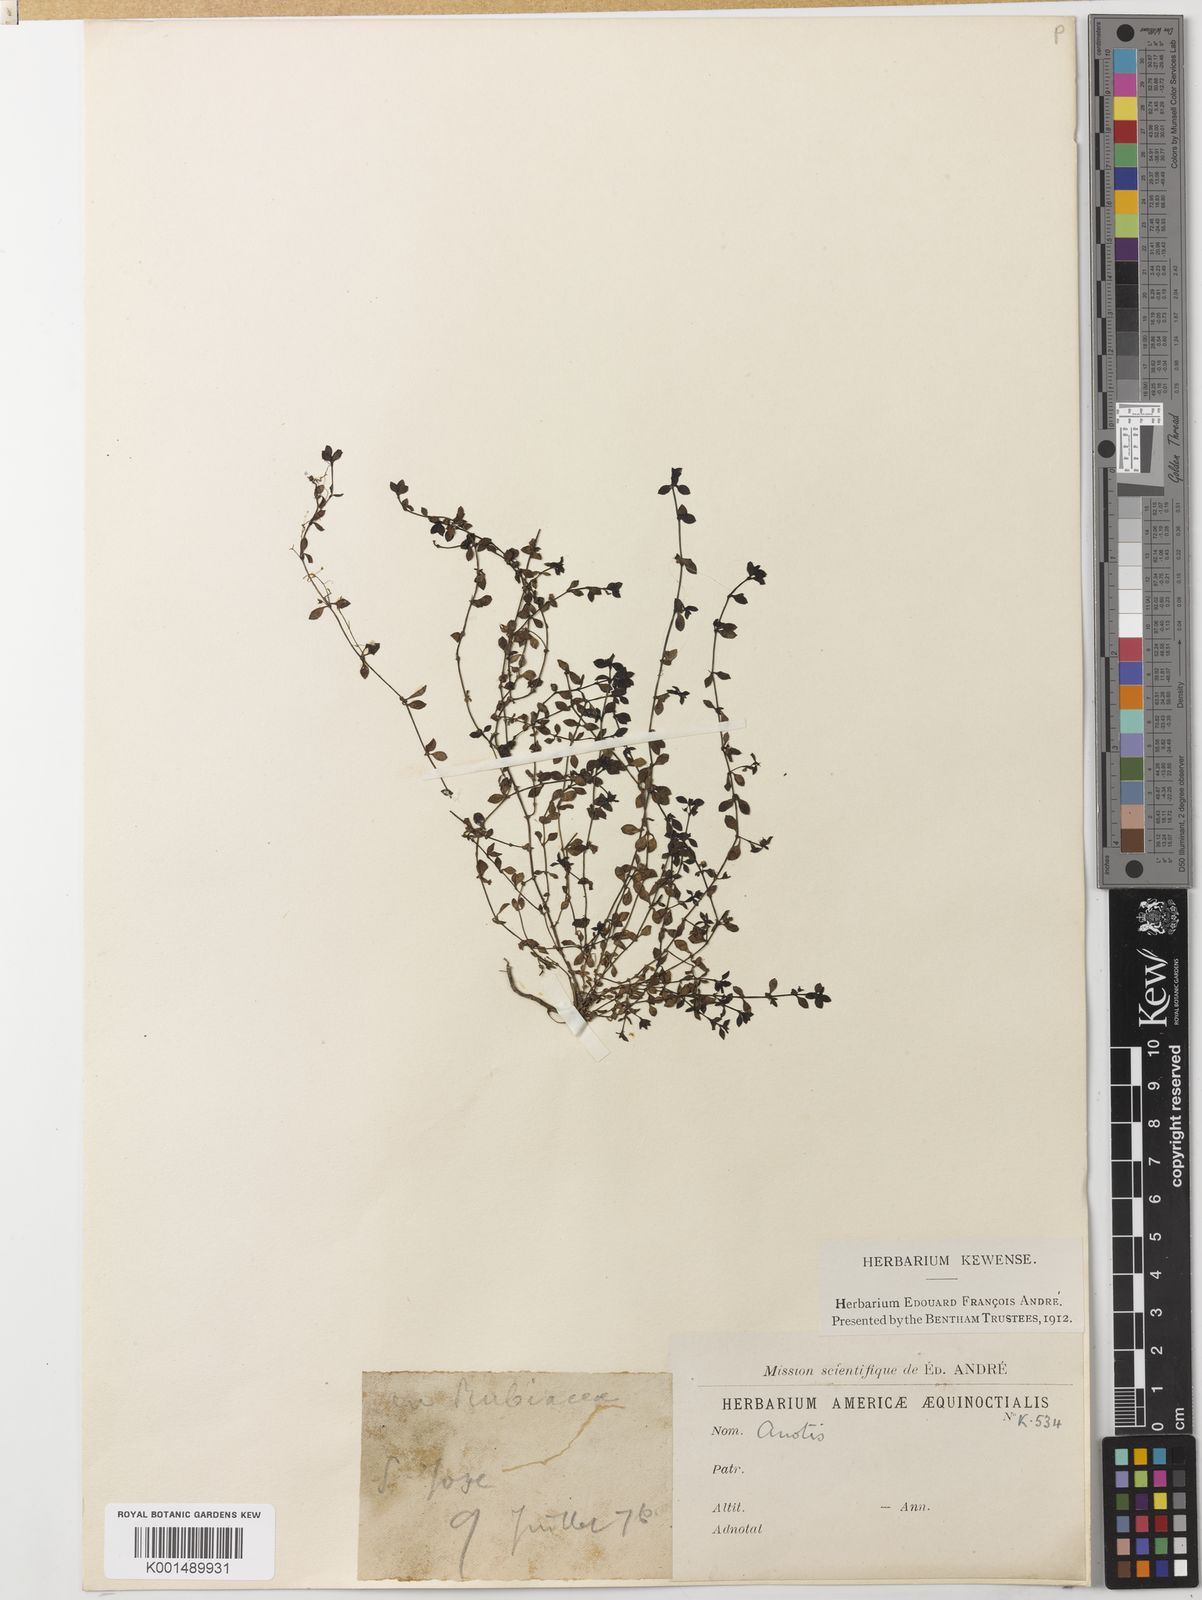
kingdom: Plantae
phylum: Tracheophyta
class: Magnoliopsida
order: Gentianales
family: Rubiaceae
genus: Oldenlandia
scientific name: Oldenlandia neomicrophylla
